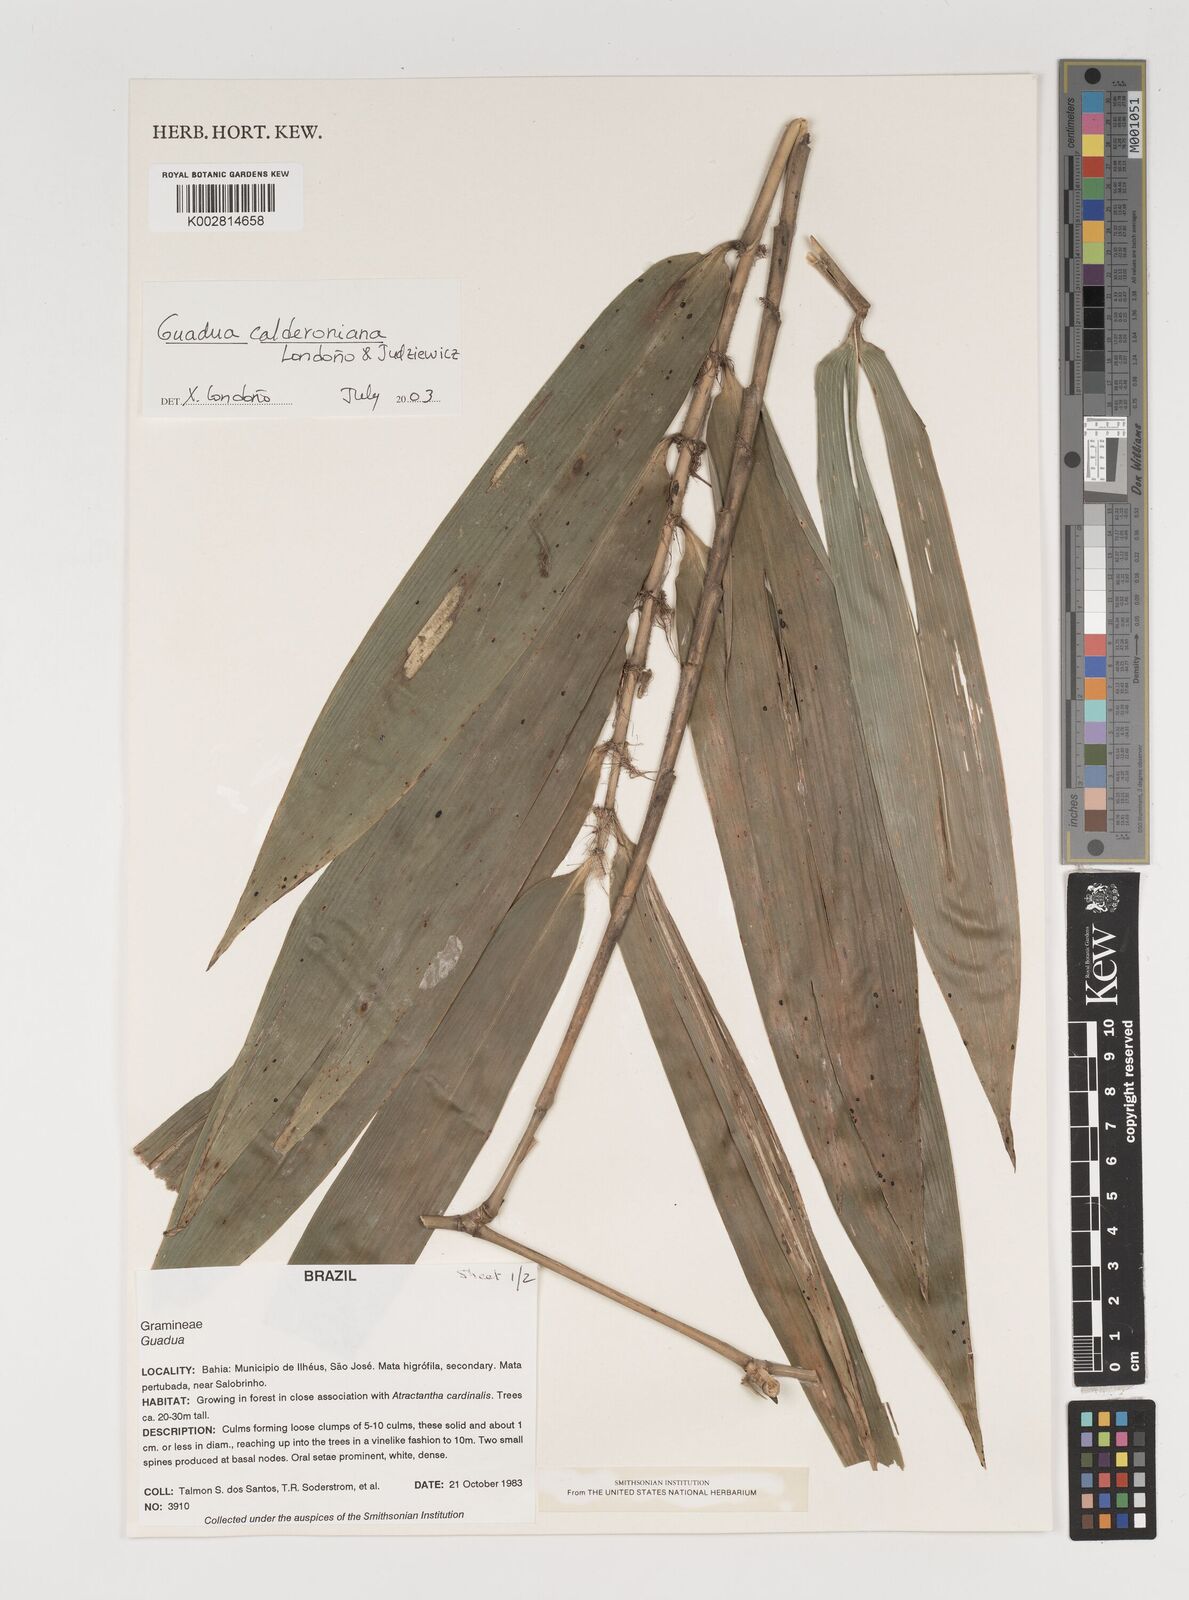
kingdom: Plantae
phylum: Tracheophyta
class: Liliopsida
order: Poales
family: Poaceae
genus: Guadua
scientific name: Guadua calderoniana
